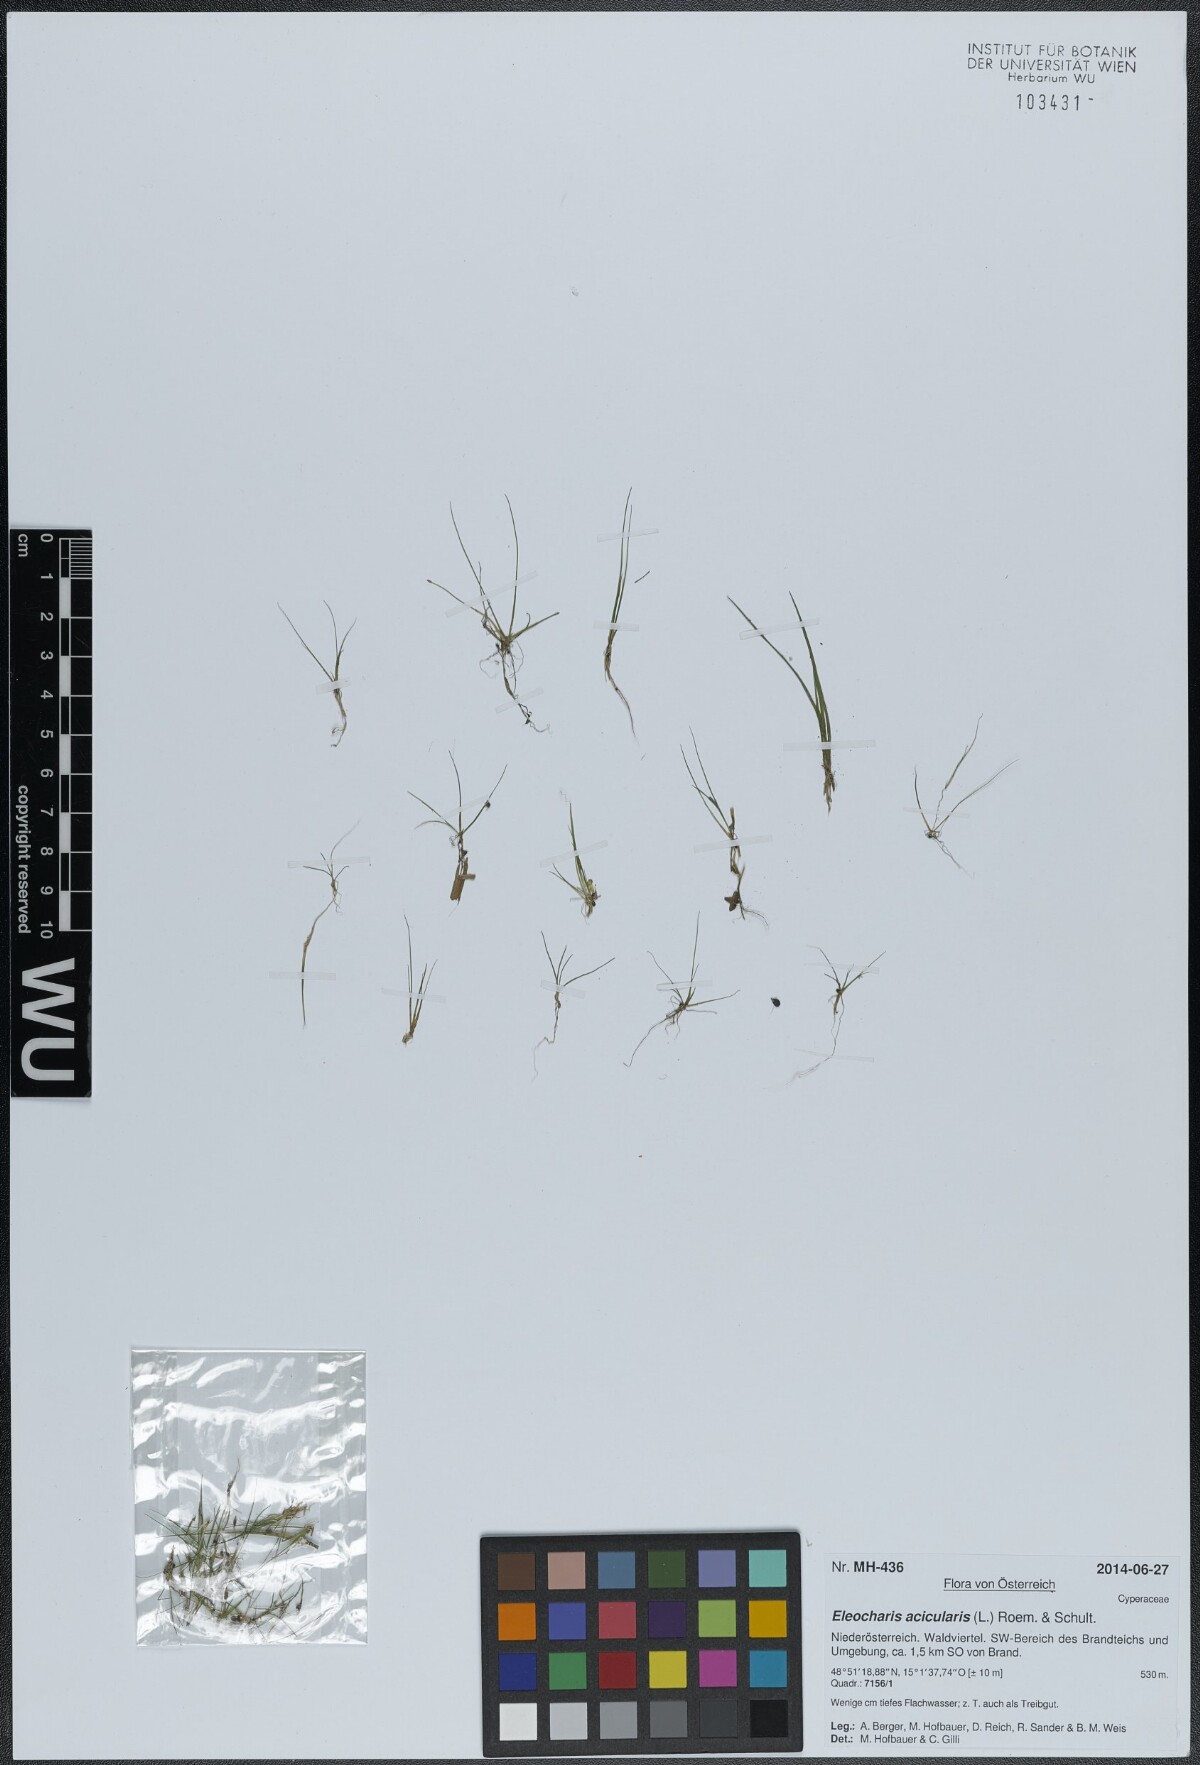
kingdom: Plantae
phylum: Tracheophyta
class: Liliopsida
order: Poales
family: Cyperaceae
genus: Eleocharis
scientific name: Eleocharis acicularis
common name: Needle spike-rush
